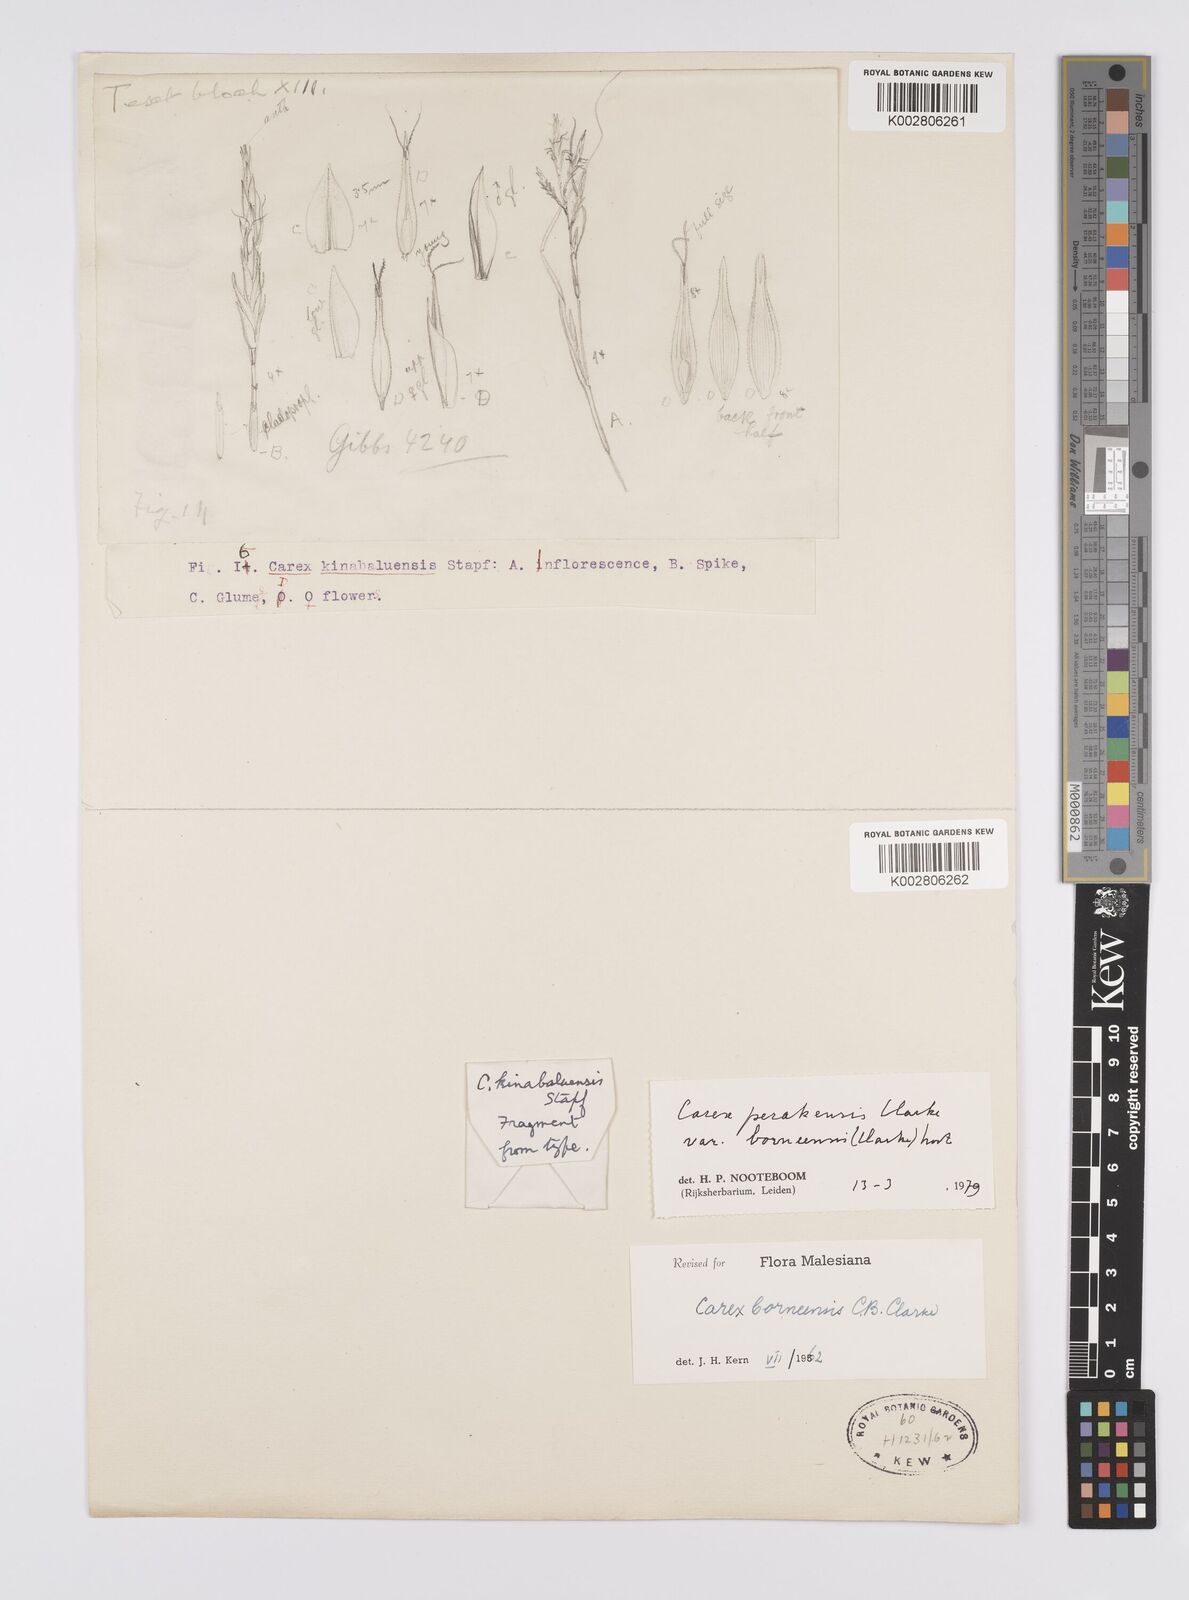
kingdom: Plantae
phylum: Tracheophyta
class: Liliopsida
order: Poales
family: Cyperaceae
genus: Carex
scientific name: Carex perakensis
